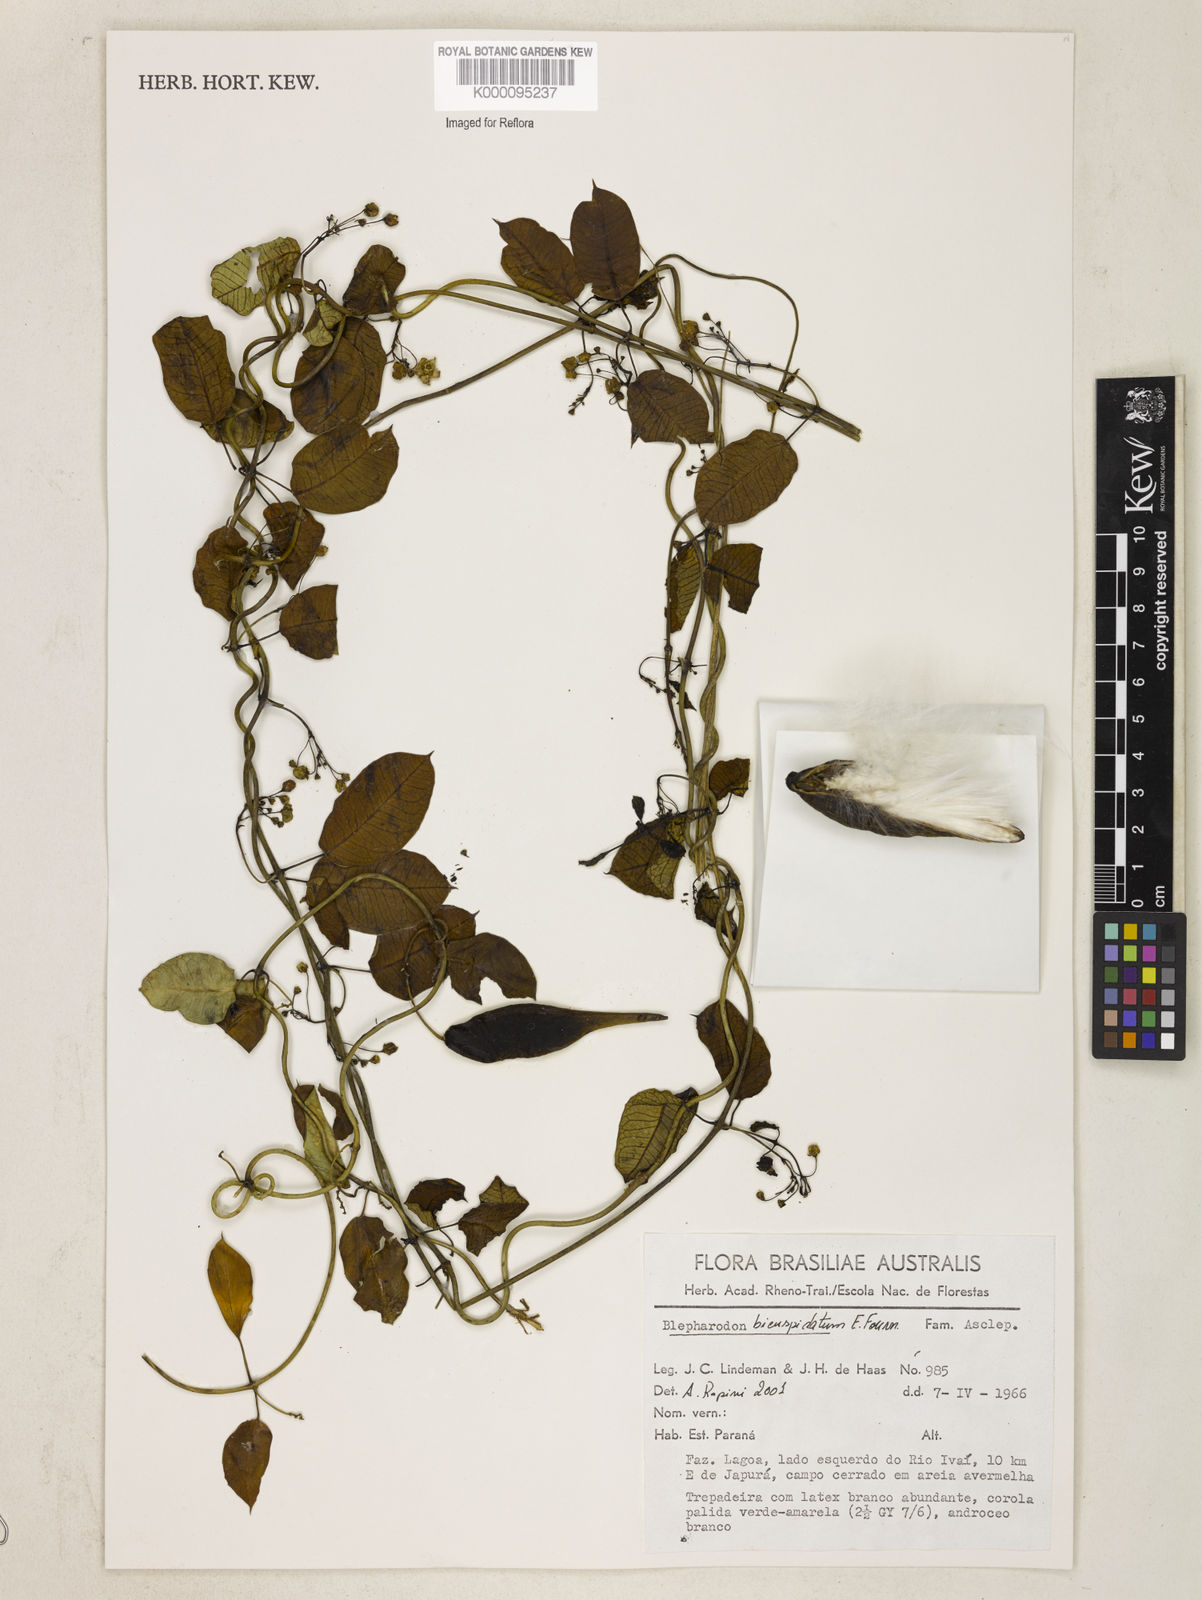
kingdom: Plantae
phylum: Tracheophyta
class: Magnoliopsida
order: Gentianales
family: Apocynaceae
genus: Blepharodon
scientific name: Blepharodon bicuspidatum
